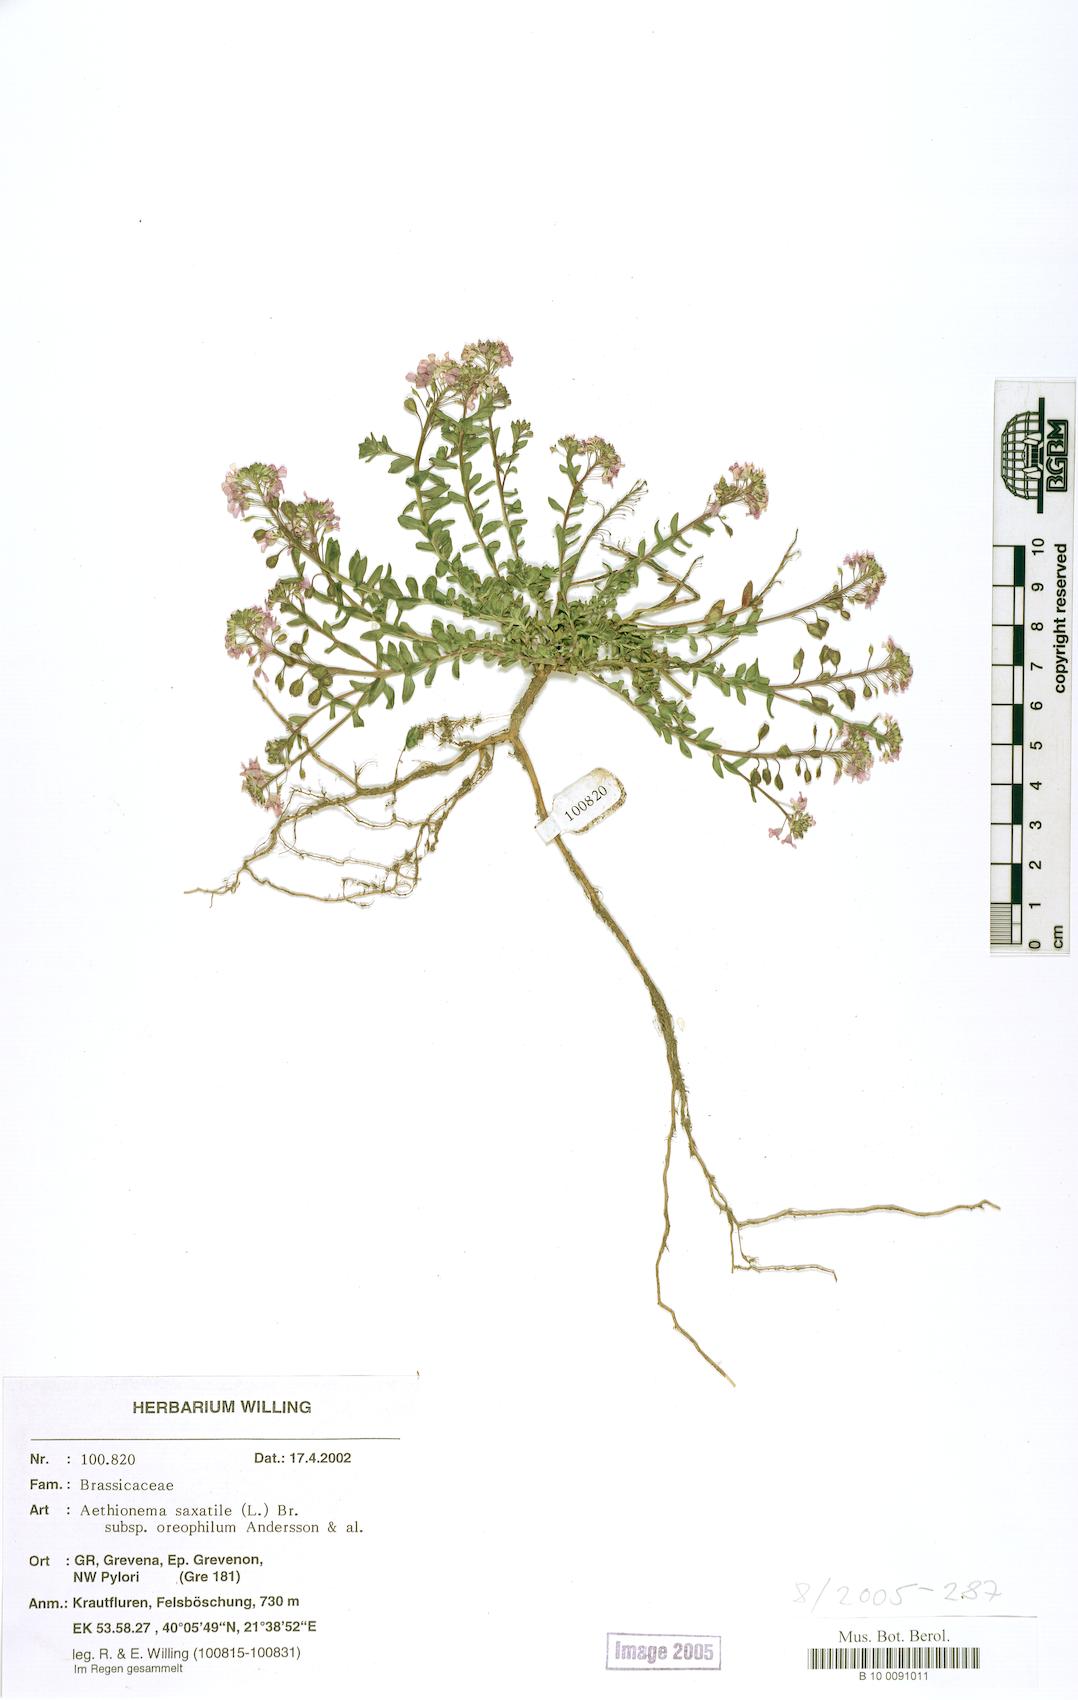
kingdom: Plantae
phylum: Tracheophyta
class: Magnoliopsida
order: Brassicales
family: Brassicaceae
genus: Aethionema
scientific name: Aethionema saxatile
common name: Burnt candytuft
